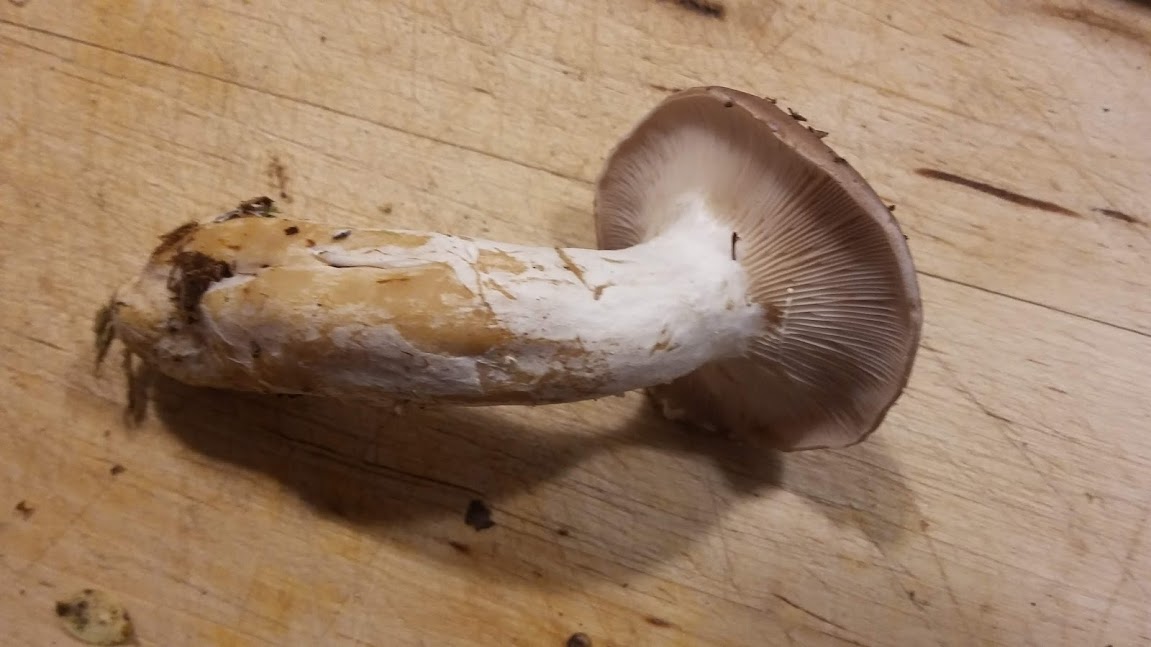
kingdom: Fungi
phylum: Basidiomycota
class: Agaricomycetes
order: Russulales
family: Russulaceae
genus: Lactarius
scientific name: Lactarius vietus
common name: violetgrå mælkehat
